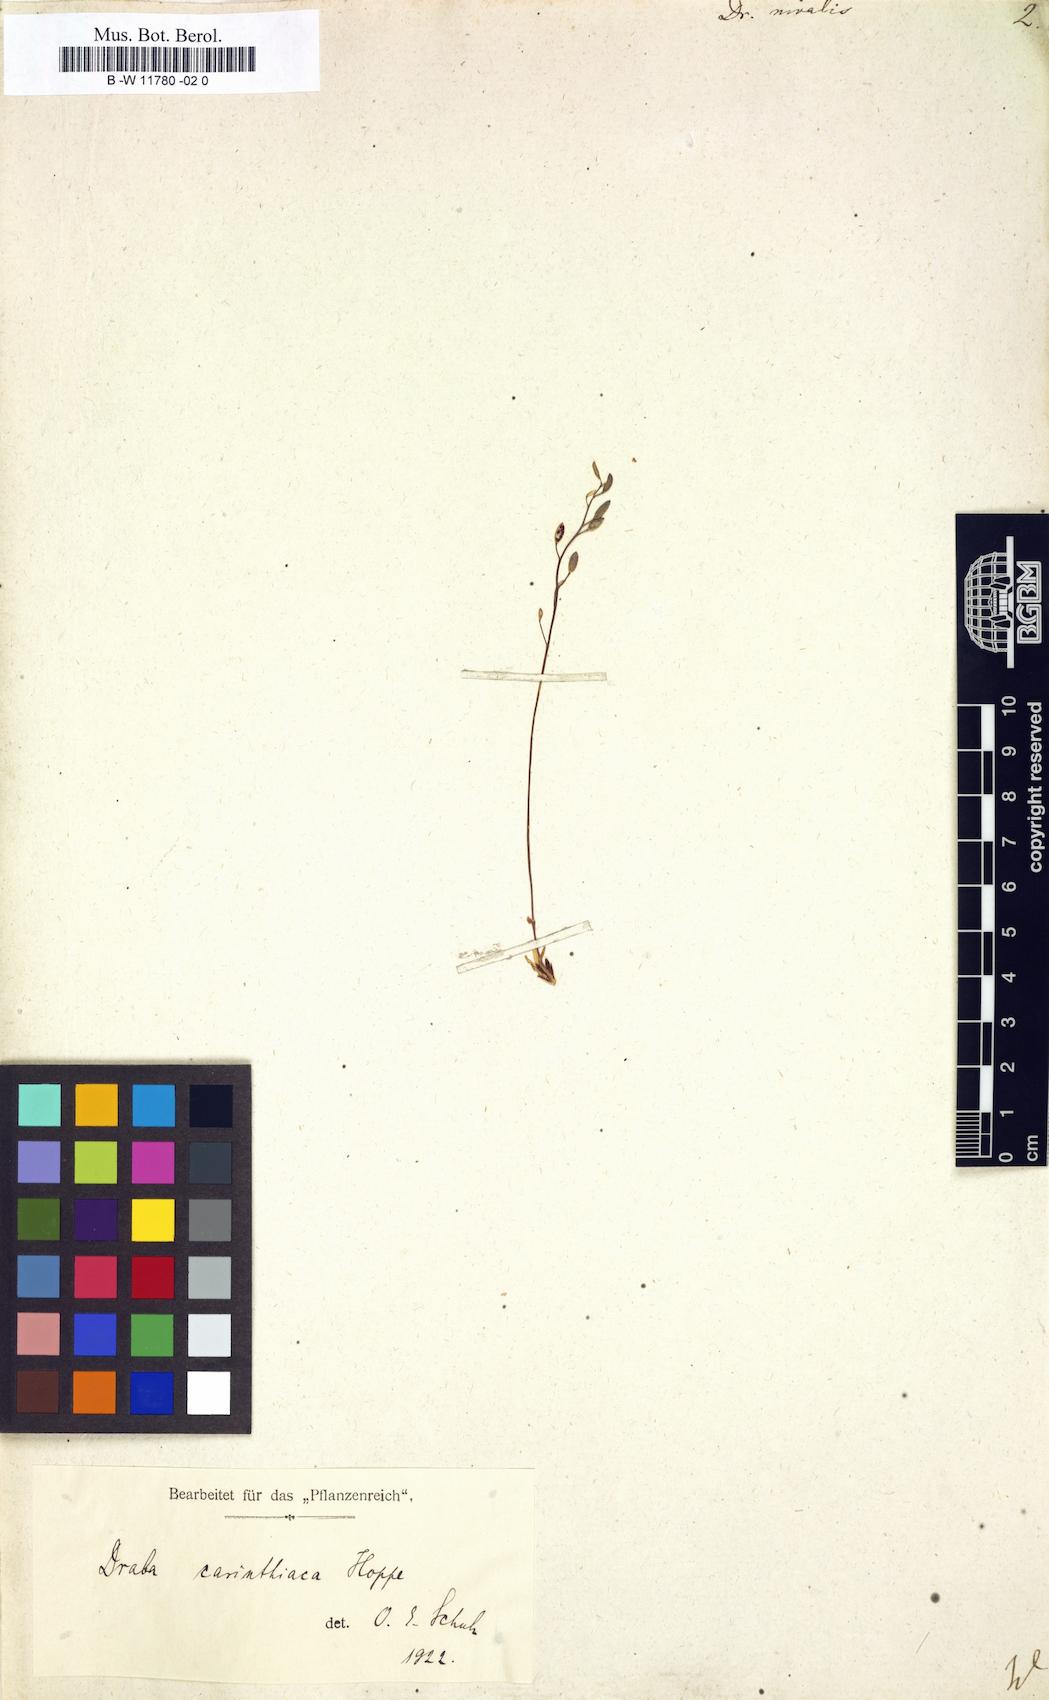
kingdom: Plantae
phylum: Tracheophyta
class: Magnoliopsida
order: Brassicales
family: Brassicaceae
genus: Draba
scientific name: Draba nivalis
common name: Snow draba
